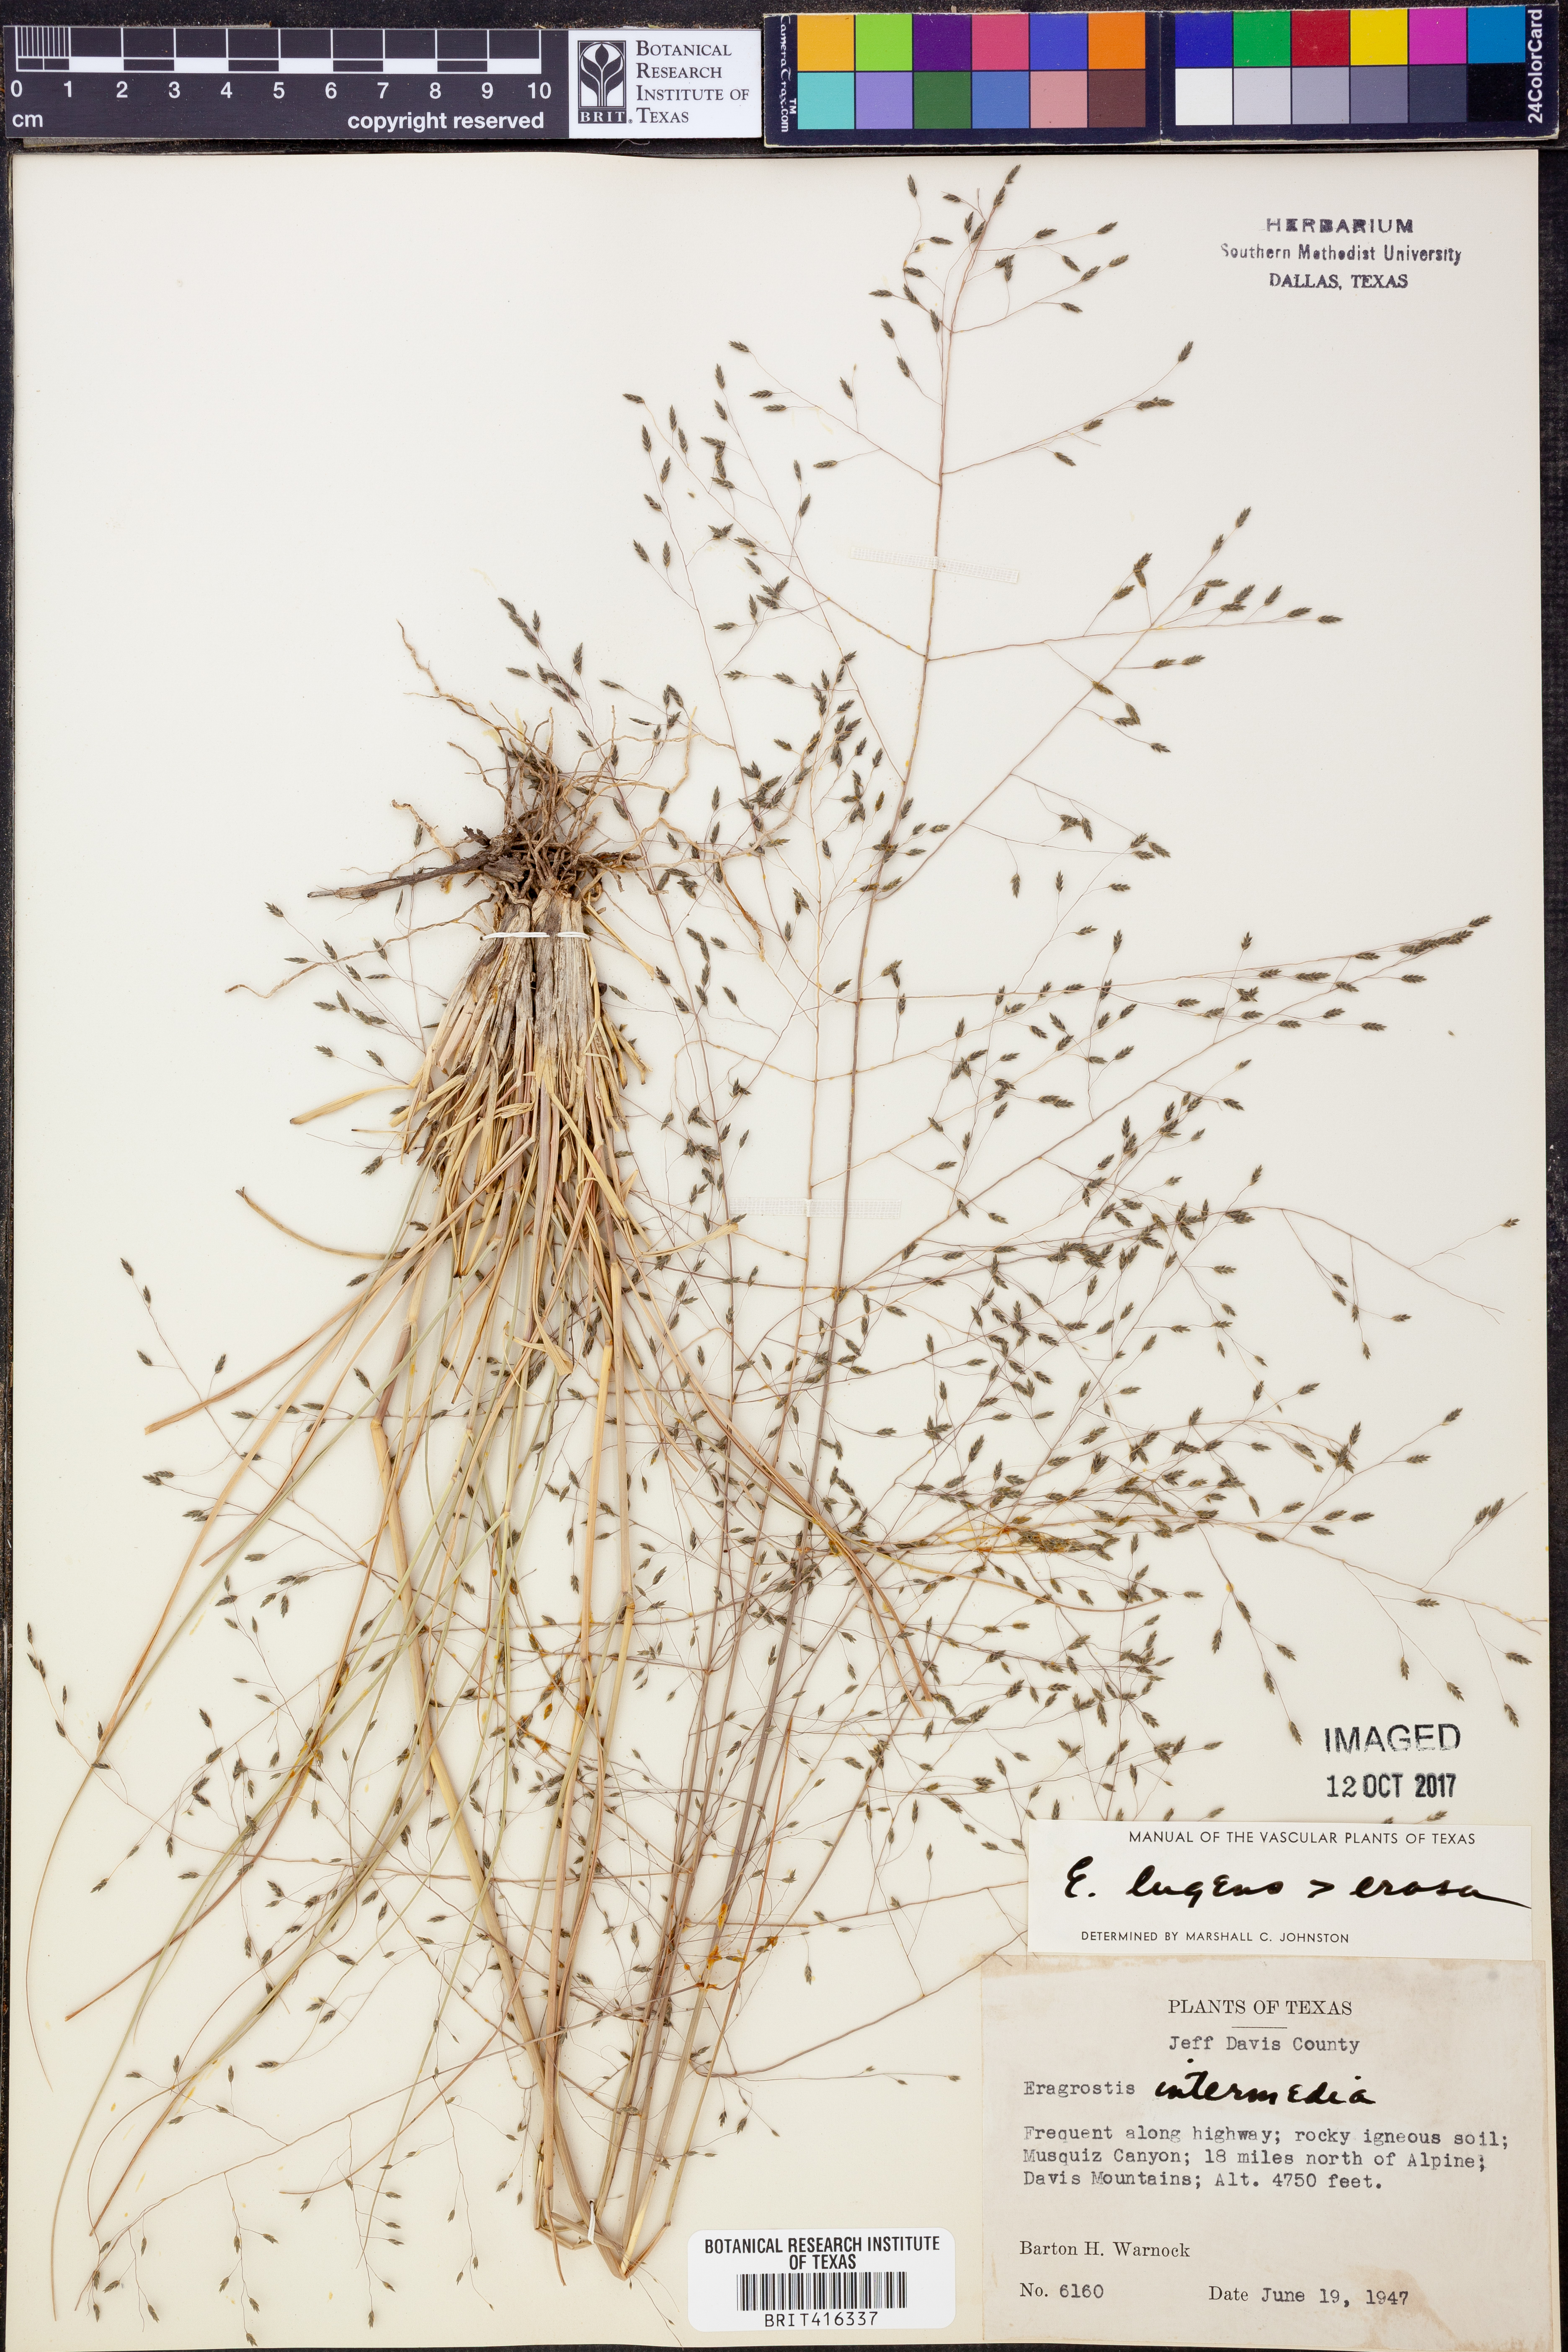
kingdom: Plantae
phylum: Tracheophyta
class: Liliopsida
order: Poales
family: Poaceae
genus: Eragrostis
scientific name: Eragrostis capillaris
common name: Hair-like lovegrass
